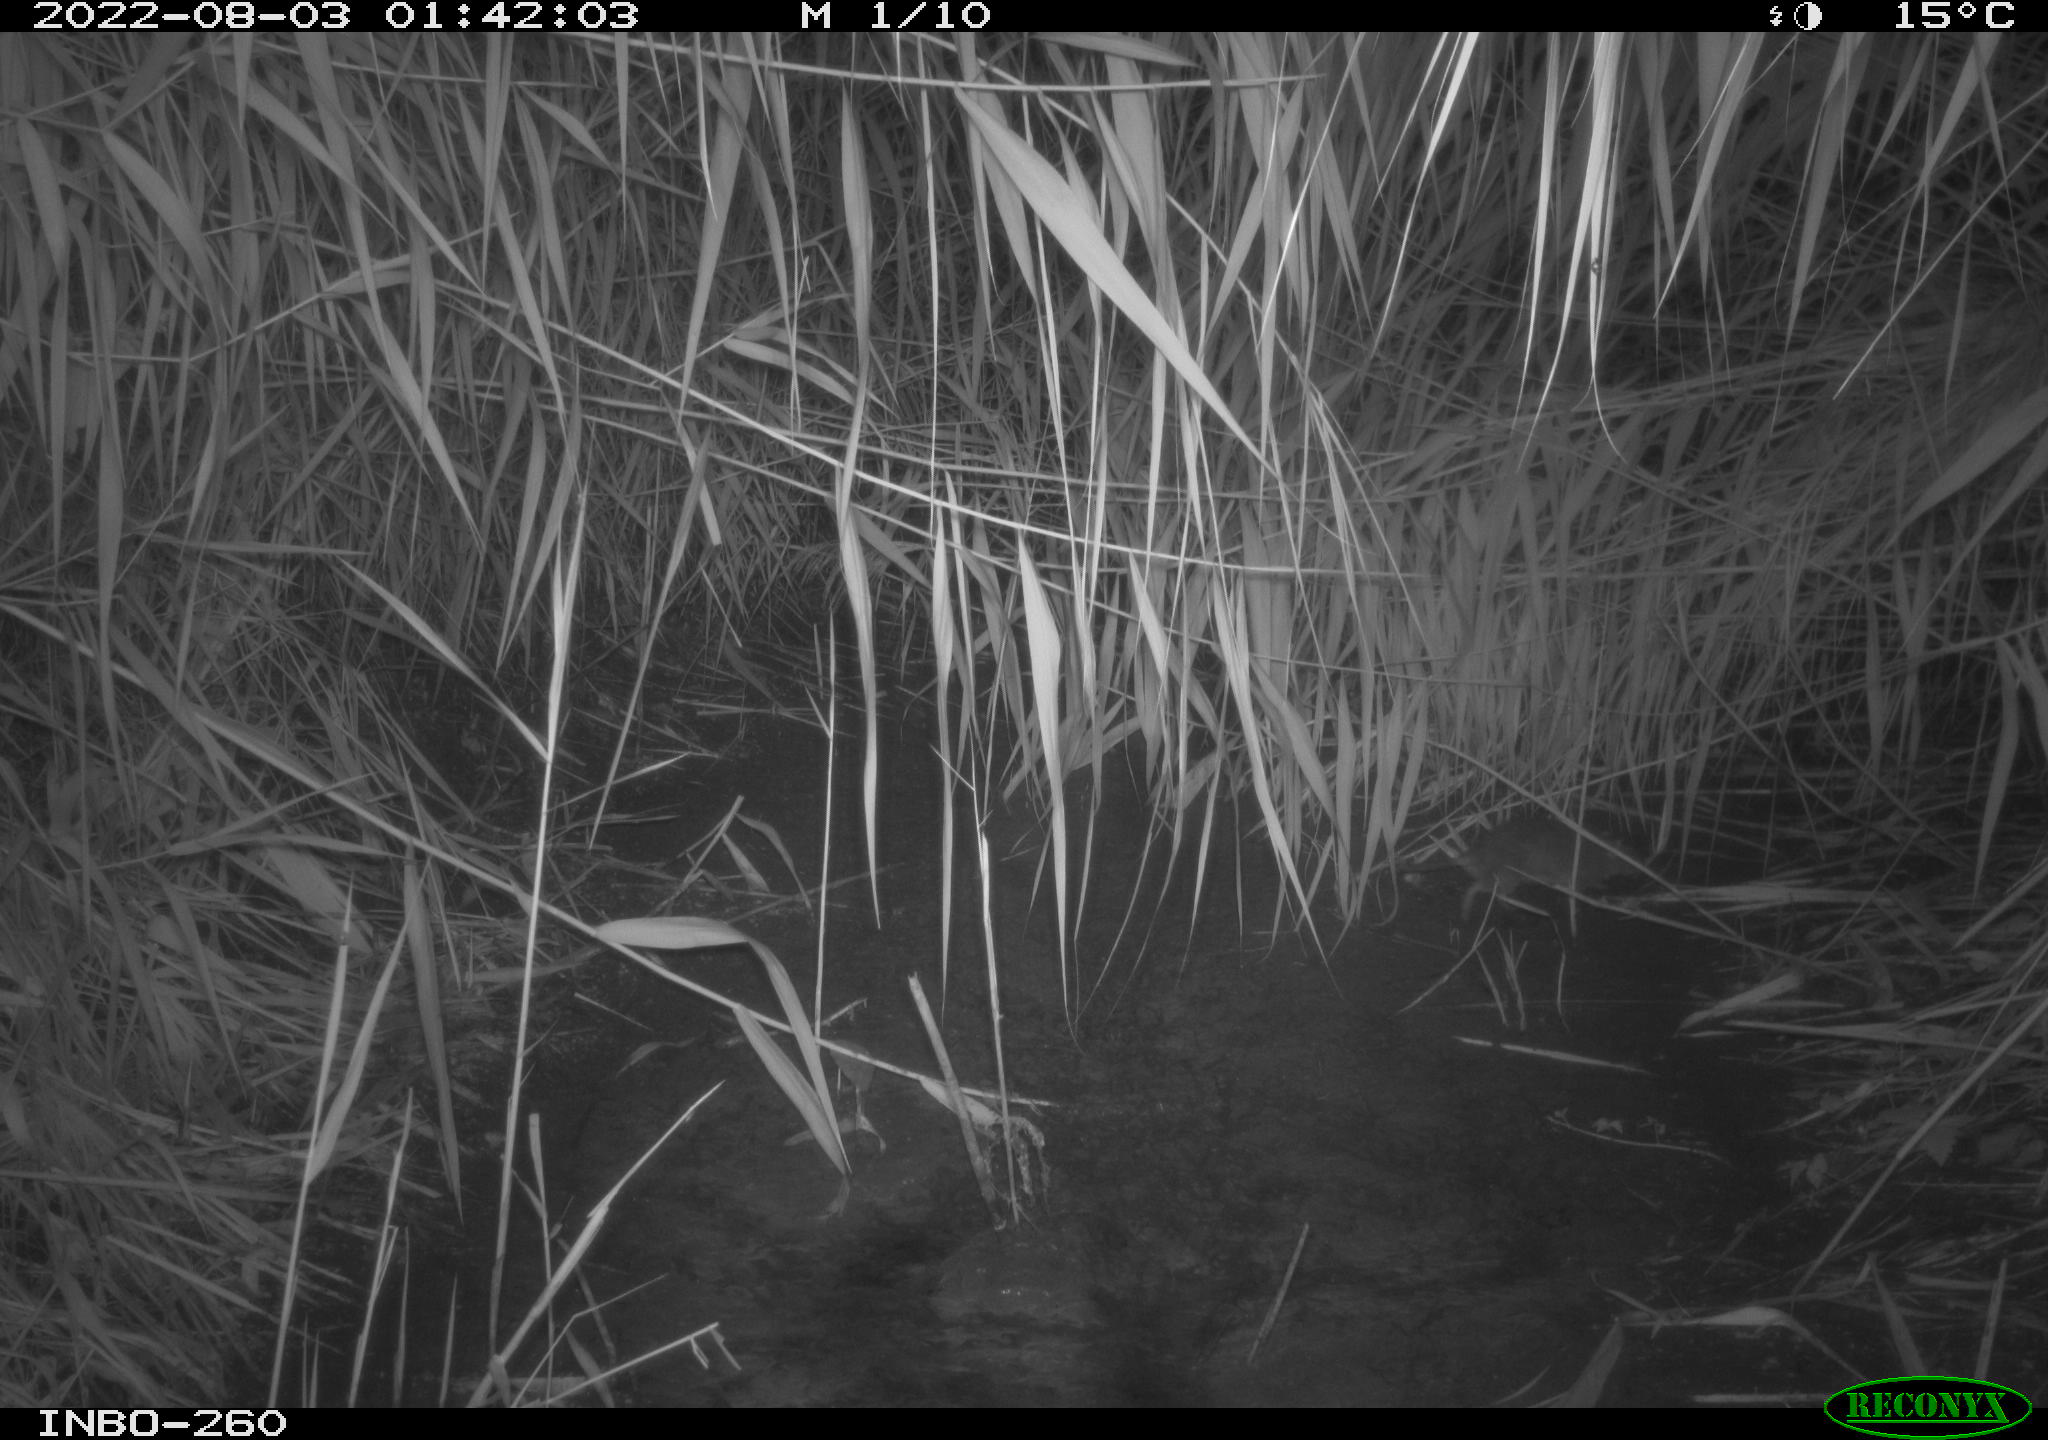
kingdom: Animalia
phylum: Chordata
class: Mammalia
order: Rodentia
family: Cricetidae
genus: Ondatra
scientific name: Ondatra zibethicus
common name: Muskrat
